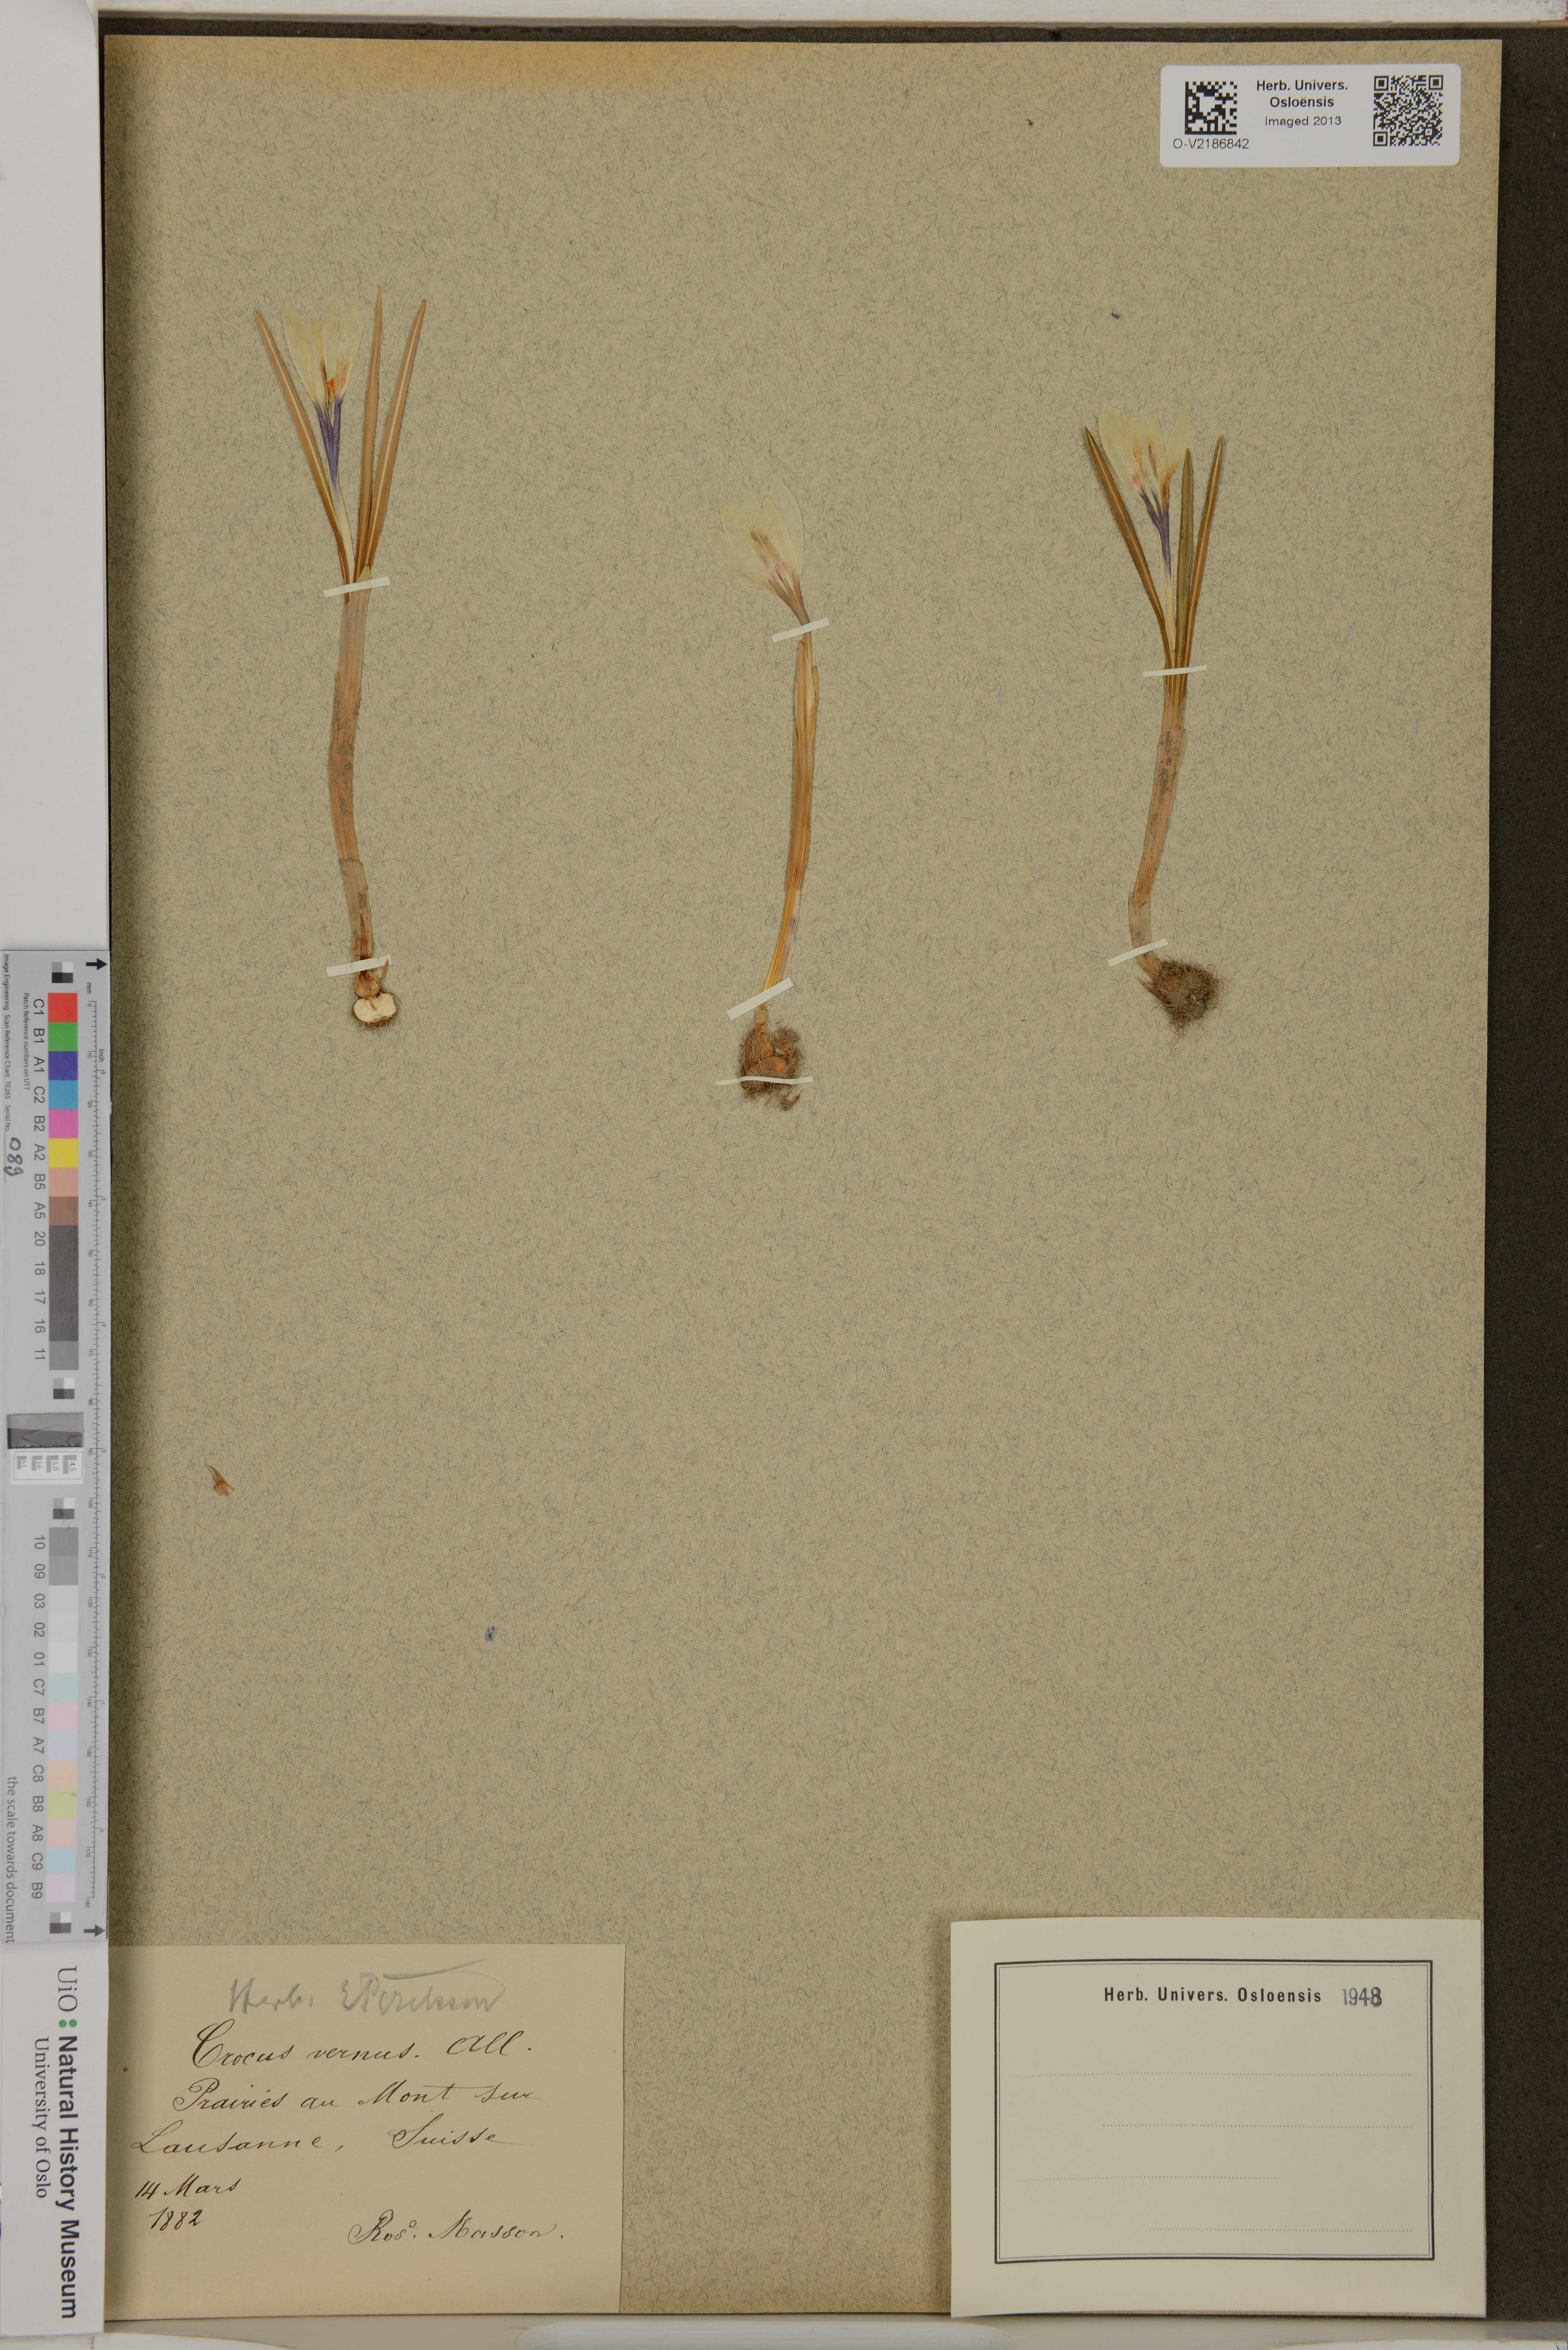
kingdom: Plantae
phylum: Tracheophyta
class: Liliopsida
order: Asparagales
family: Iridaceae
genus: Crocus
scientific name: Crocus vernus
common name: Spring crocus
